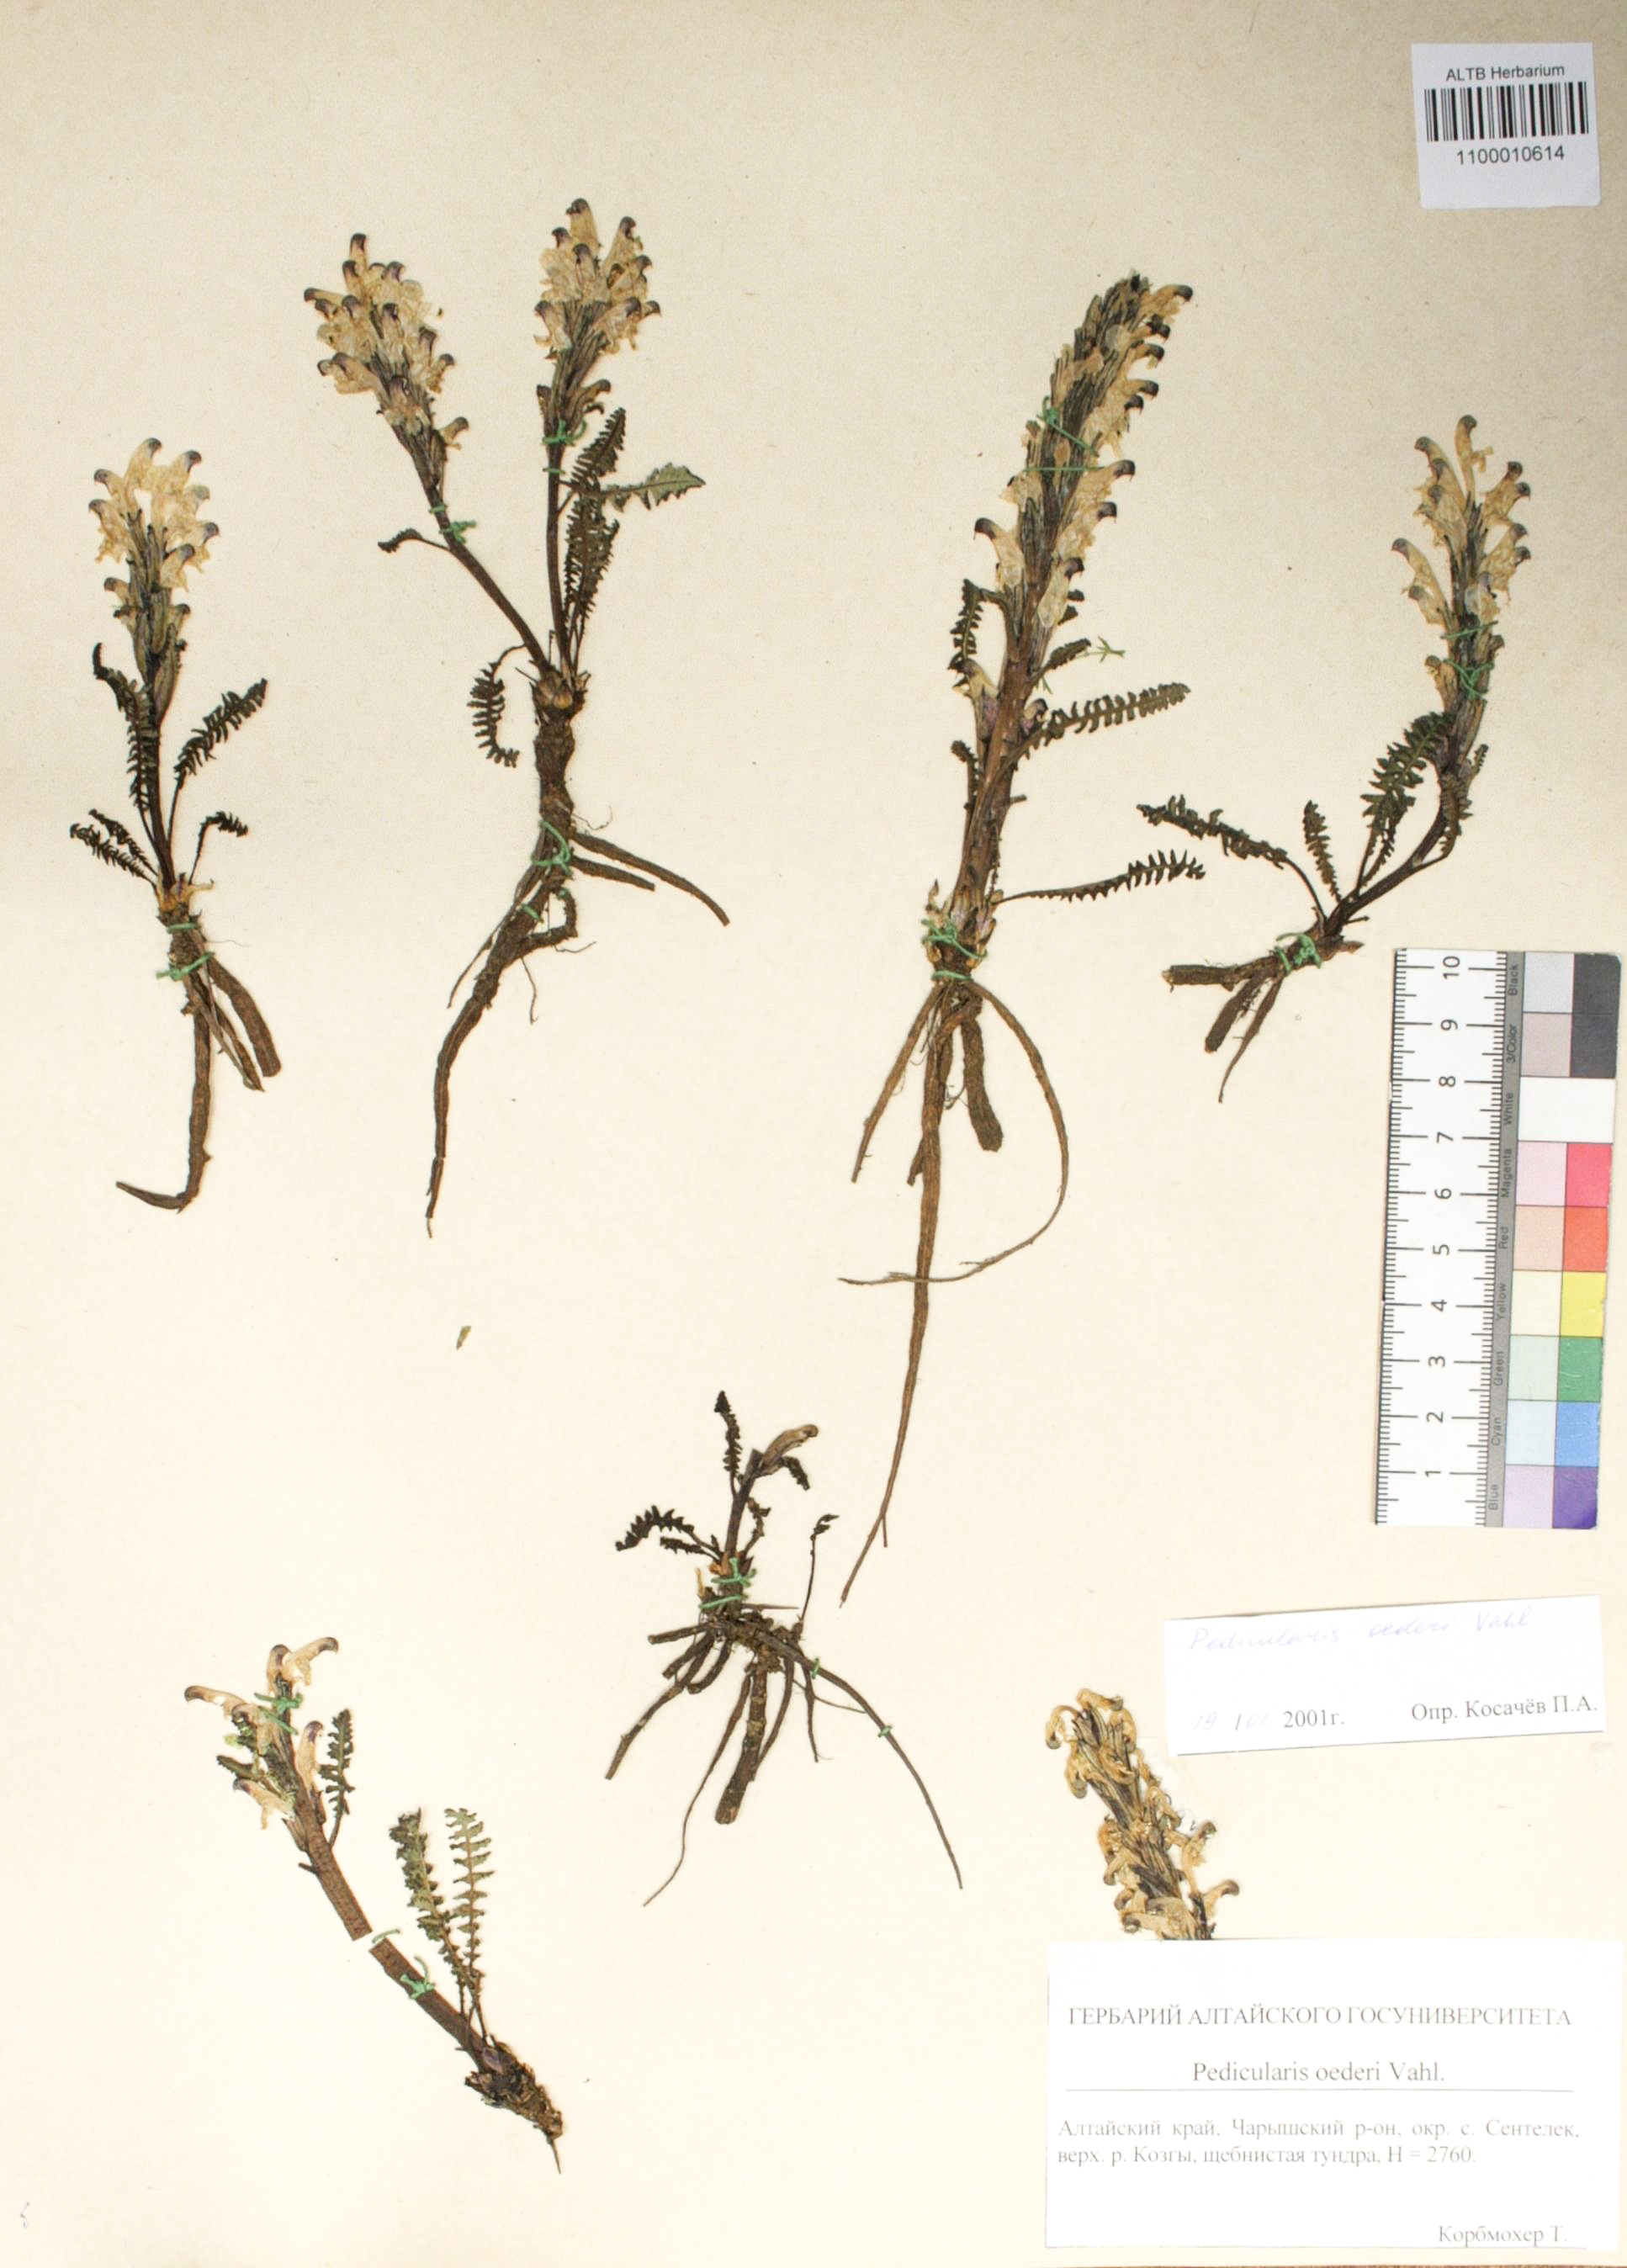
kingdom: Plantae
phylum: Tracheophyta
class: Magnoliopsida
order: Caryophyllales
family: Caryophyllaceae
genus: Silene
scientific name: Silene graminifolia
